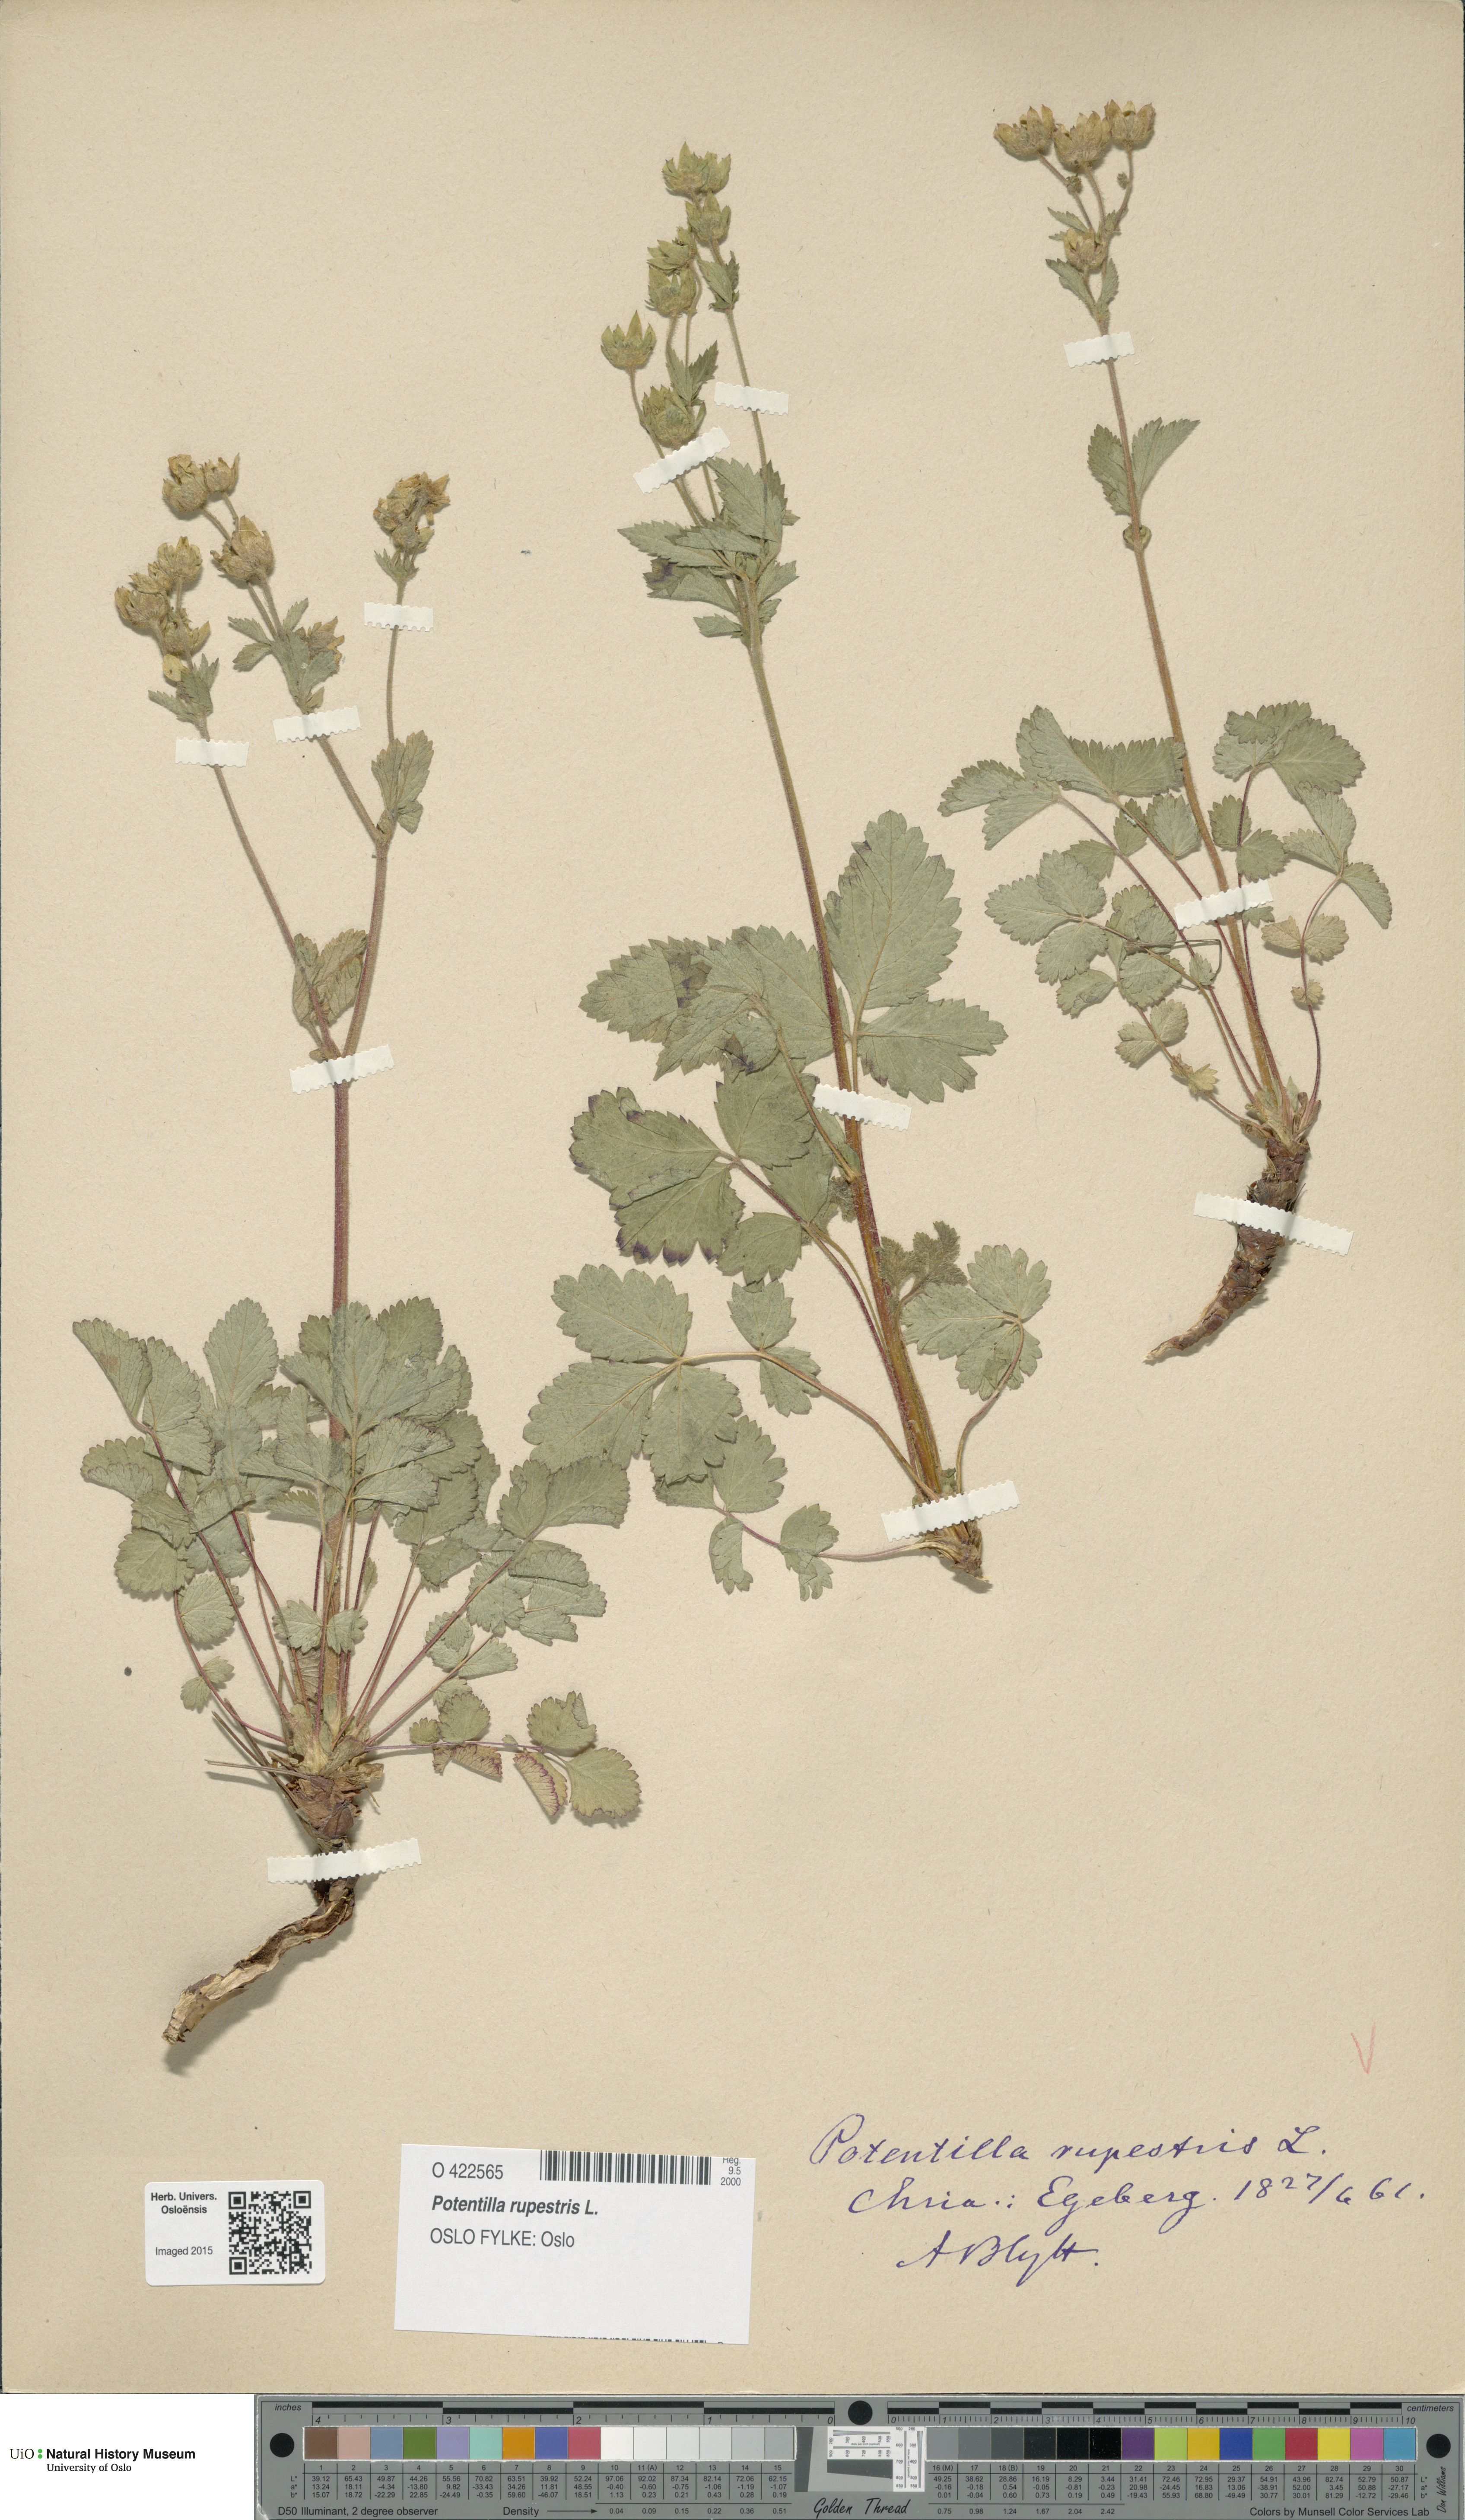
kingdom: Plantae
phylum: Tracheophyta
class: Magnoliopsida
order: Rosales
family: Rosaceae
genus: Drymocallis
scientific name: Drymocallis rupestris
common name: Rock cinquefoil
